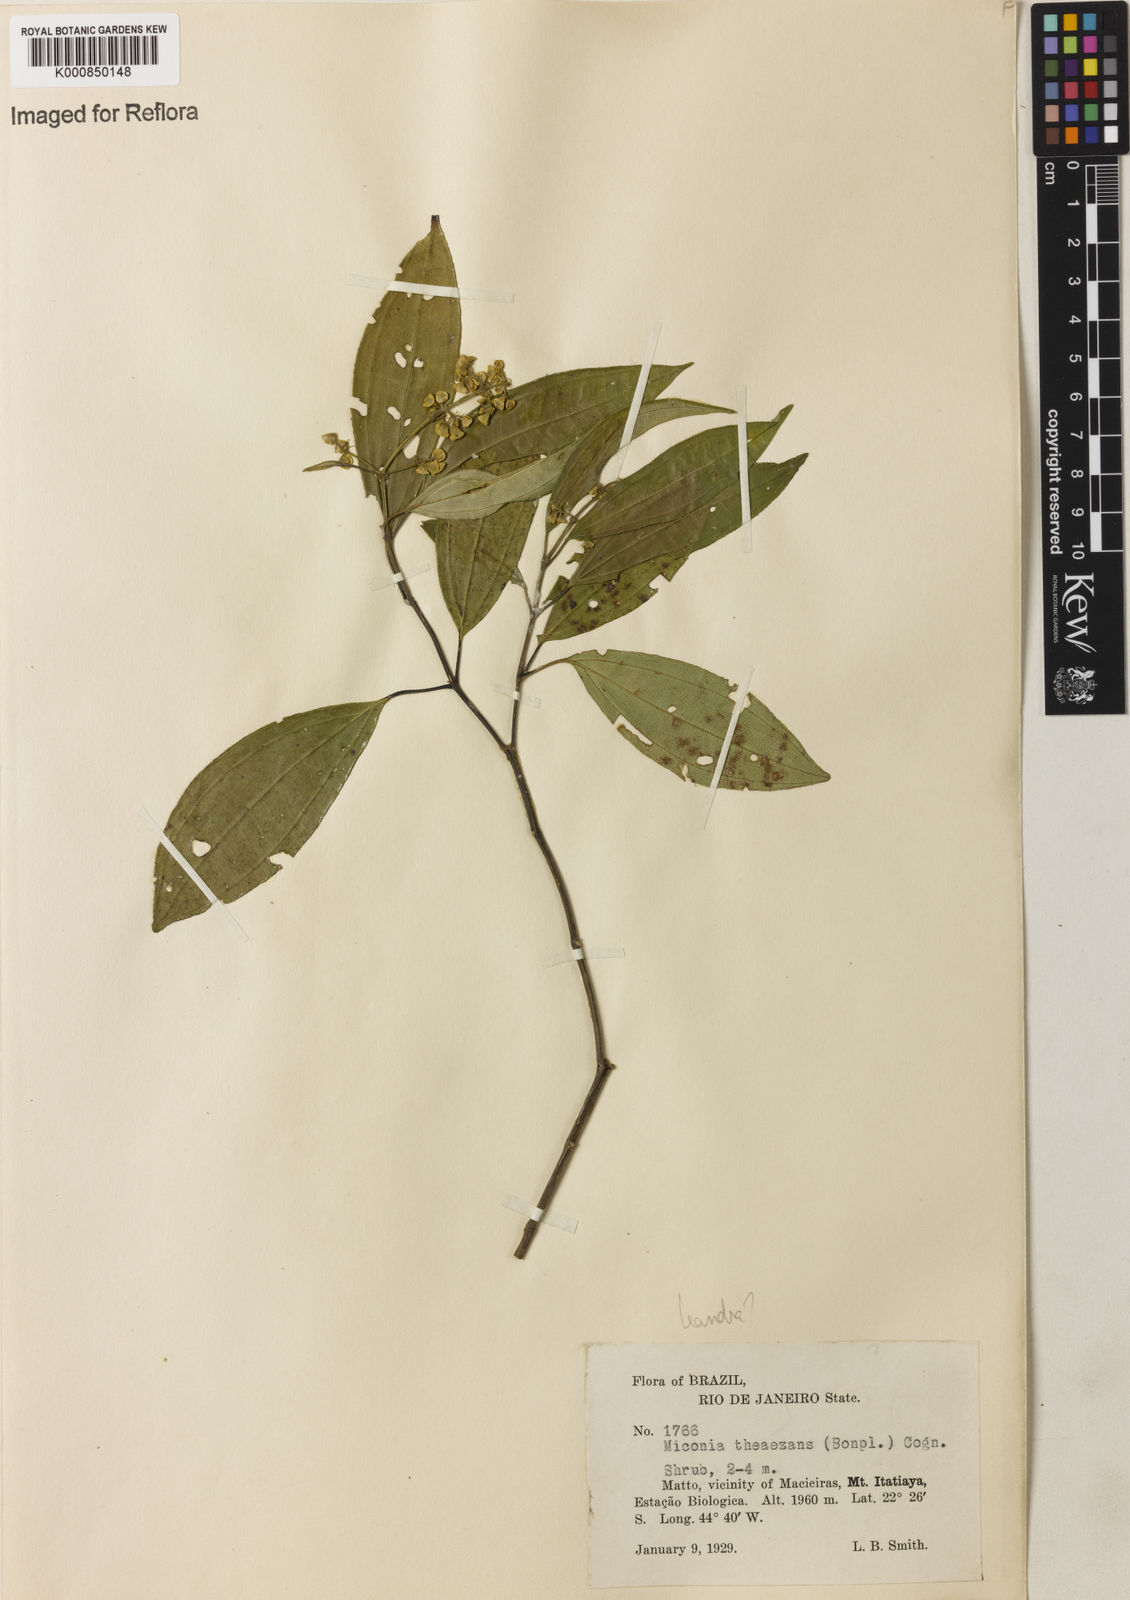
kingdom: Plantae
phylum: Tracheophyta
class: Magnoliopsida
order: Myrtales
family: Melastomataceae
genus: Miconia
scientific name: Miconia
